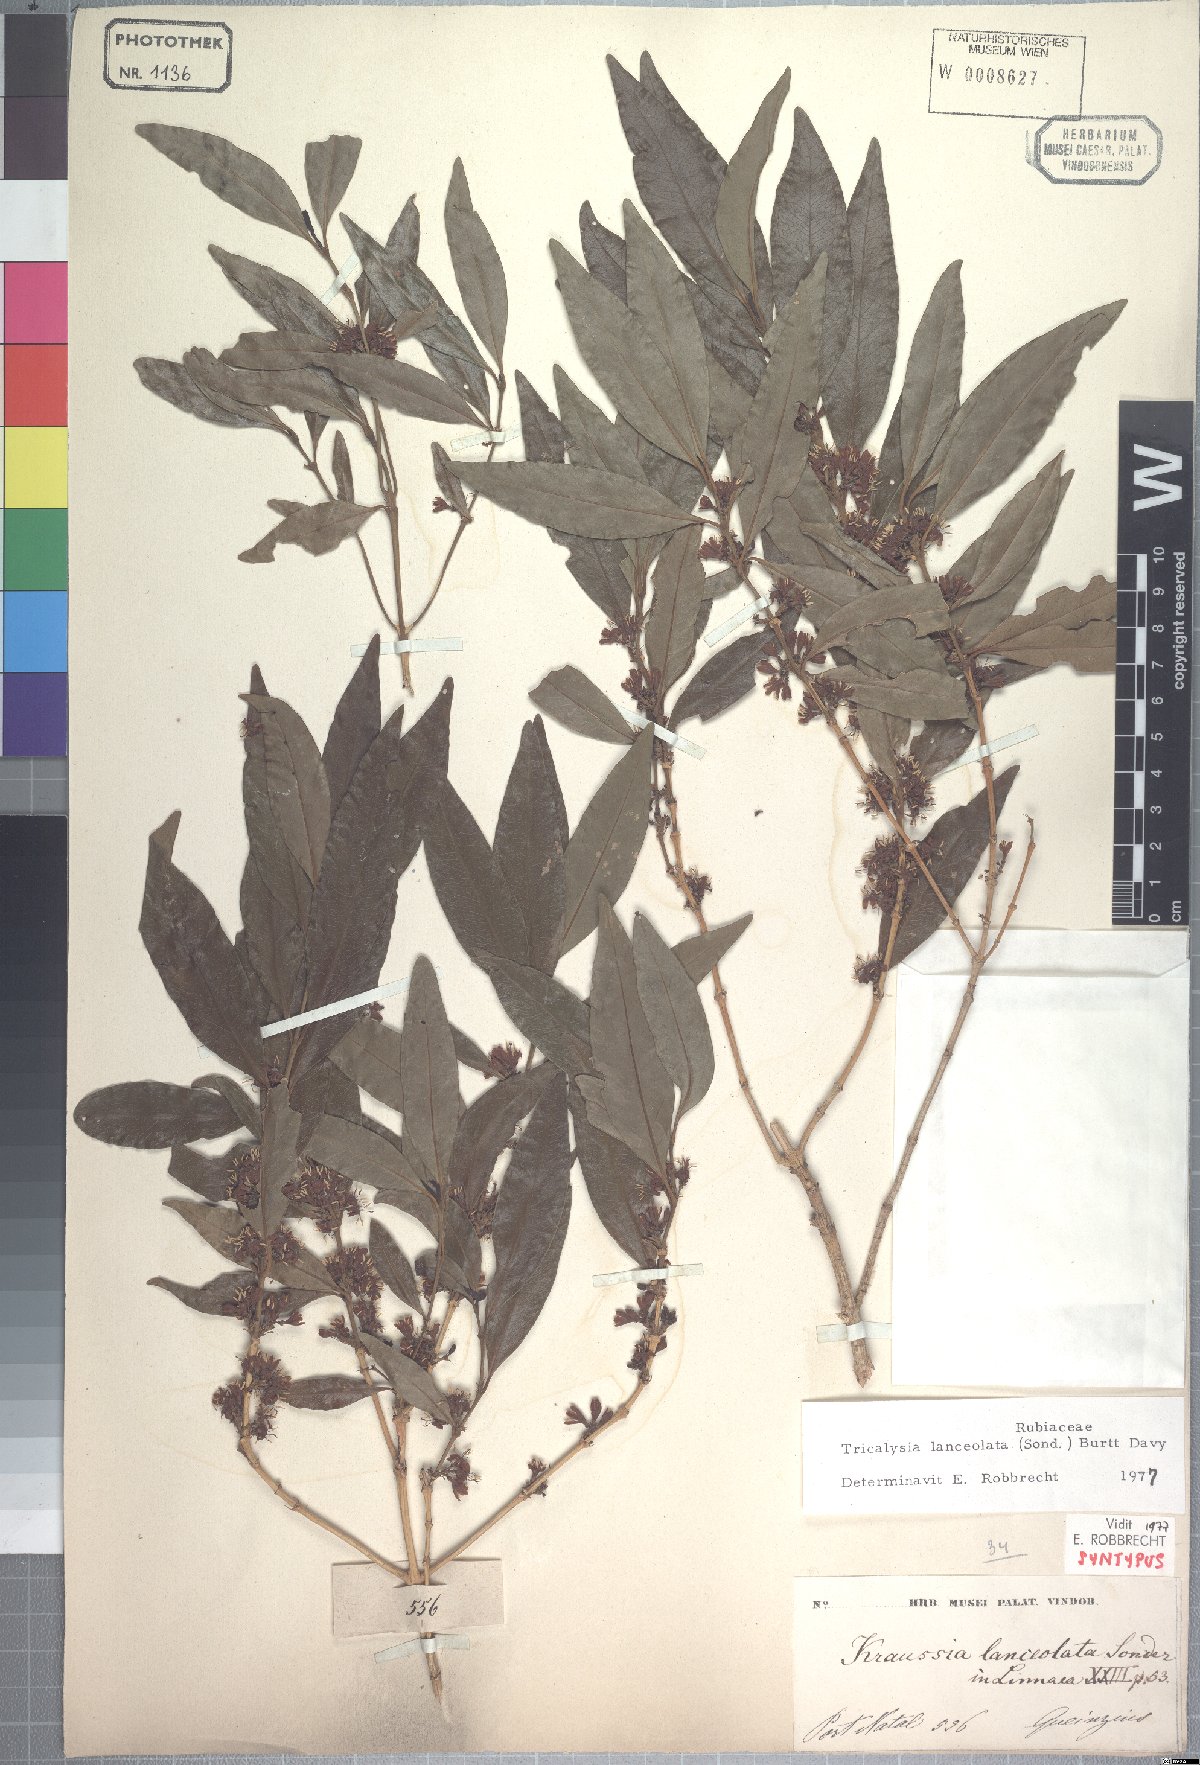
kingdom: Plantae
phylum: Tracheophyta
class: Magnoliopsida
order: Gentianales
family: Rubiaceae
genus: Empogona
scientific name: Empogona lanceolata
